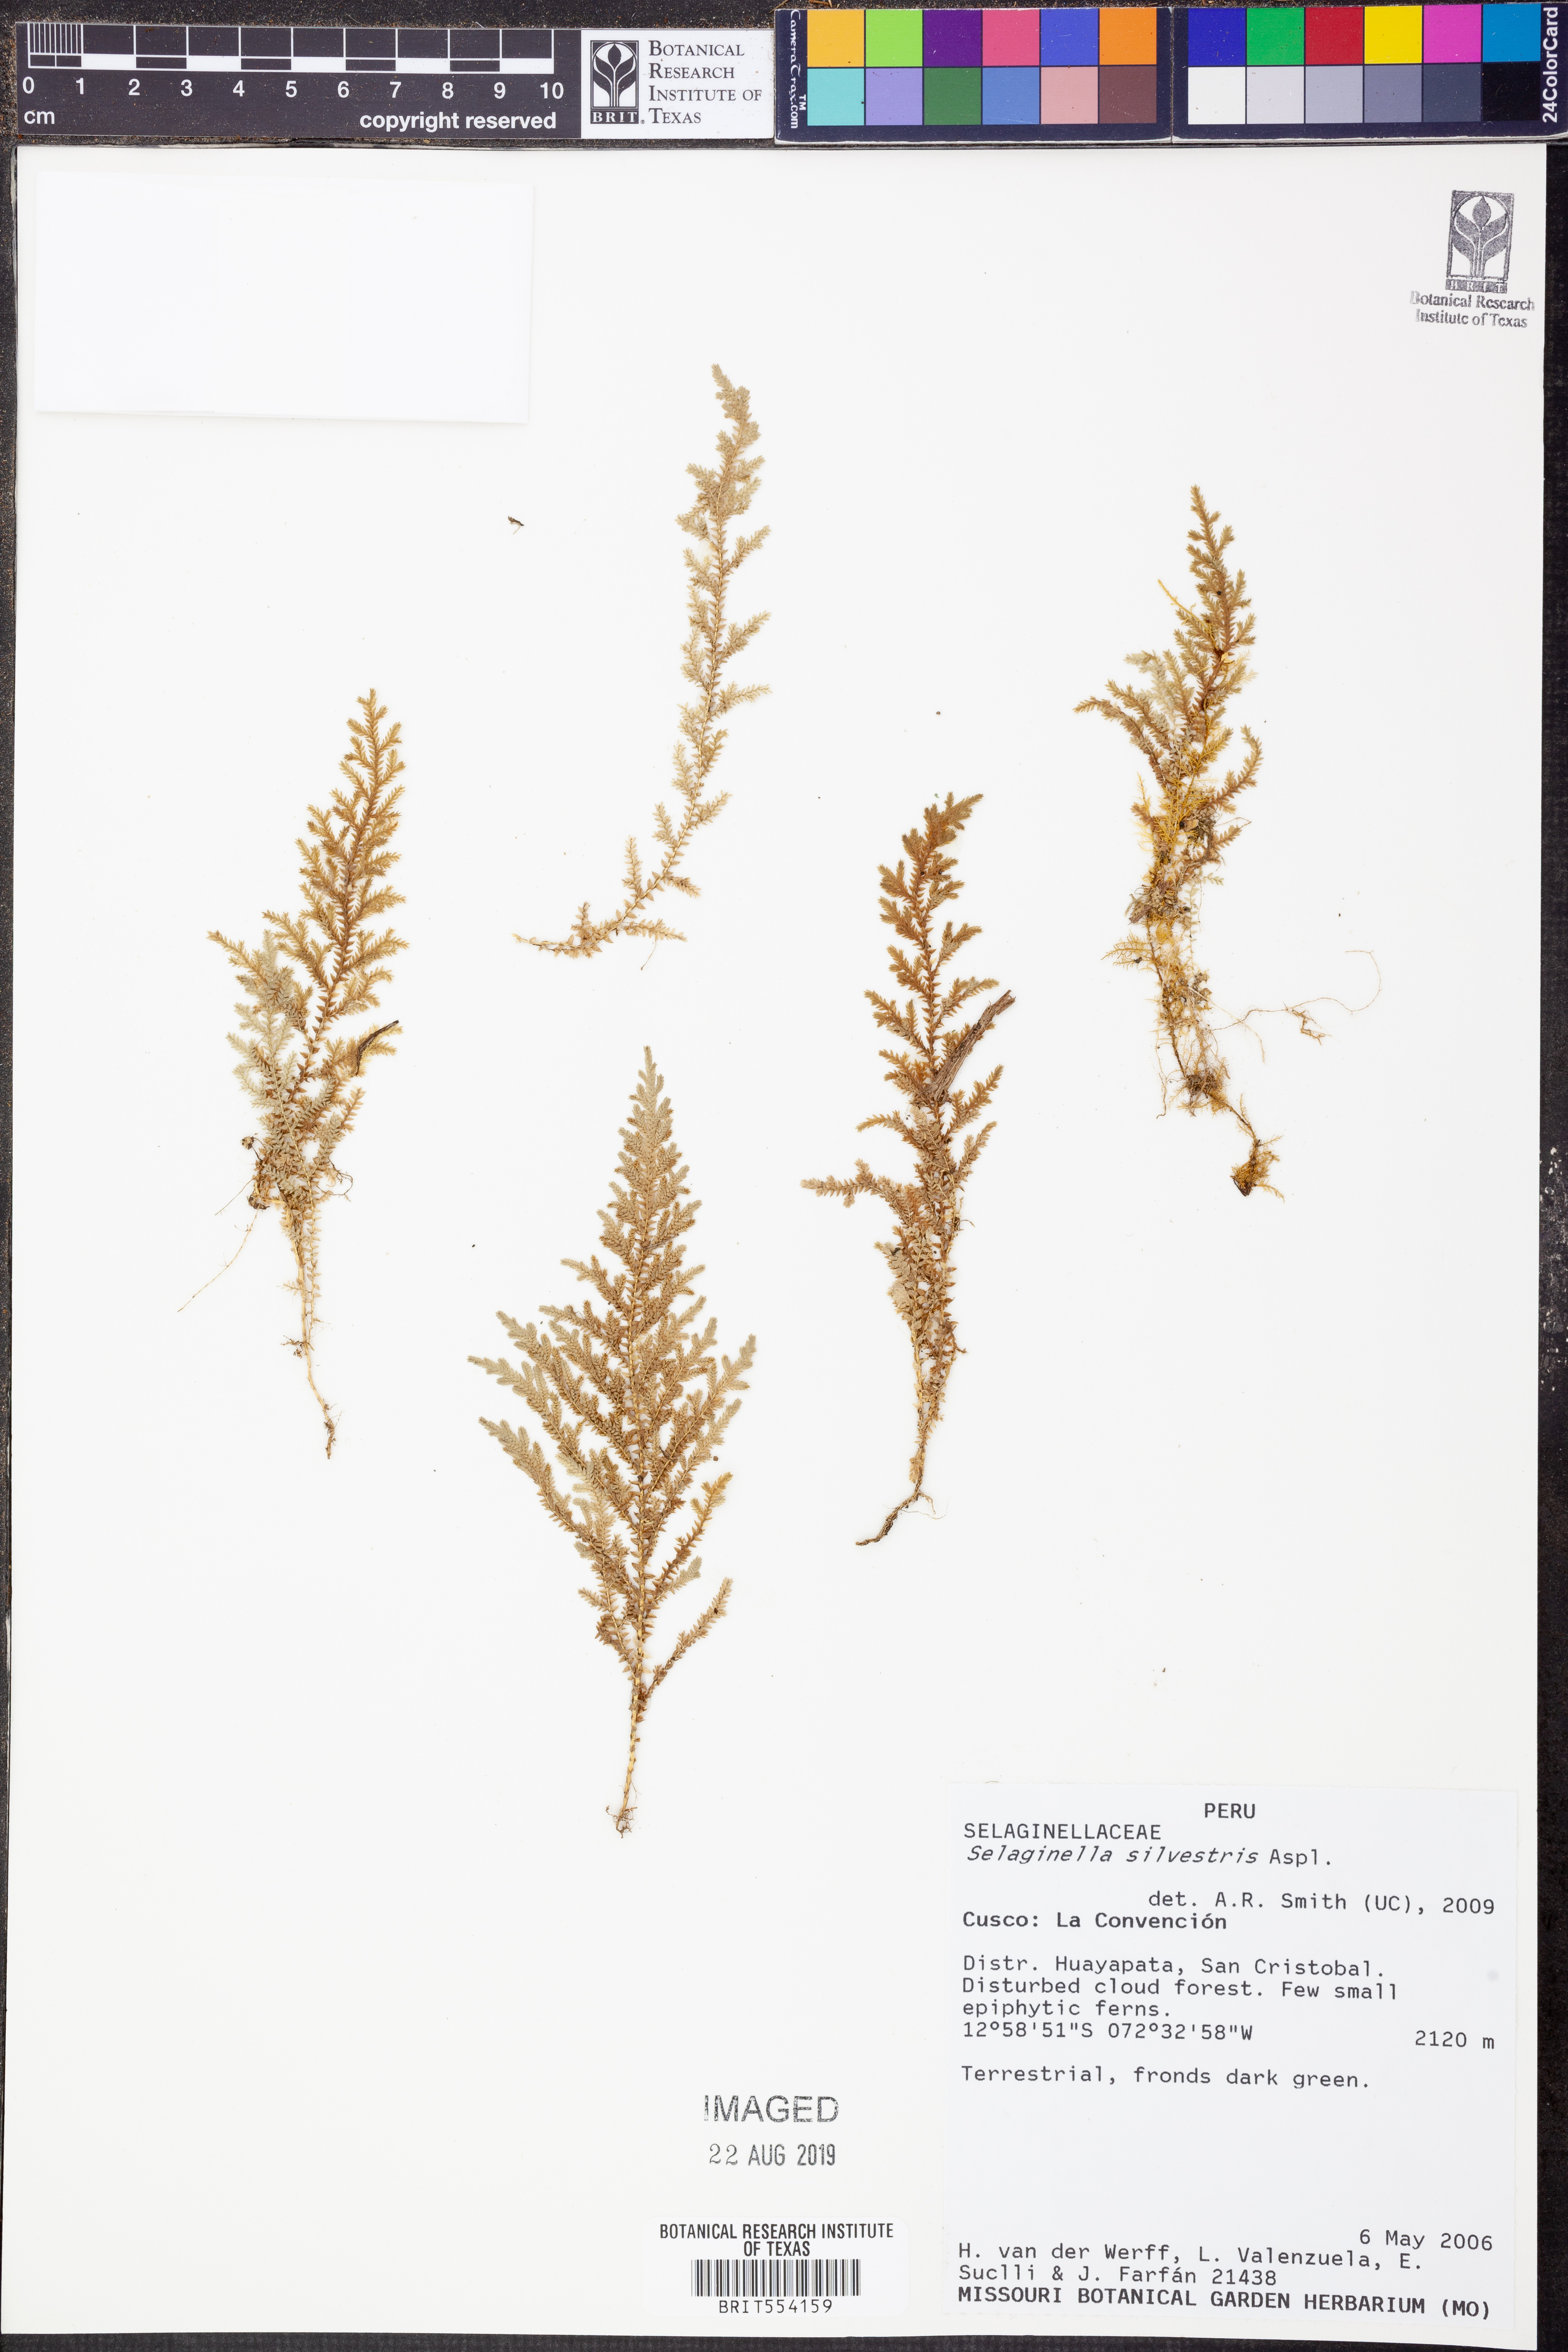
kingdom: Plantae
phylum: Tracheophyta
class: Lycopodiopsida
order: Selaginellales
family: Selaginellaceae
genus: Selaginella
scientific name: Selaginella silvestris
